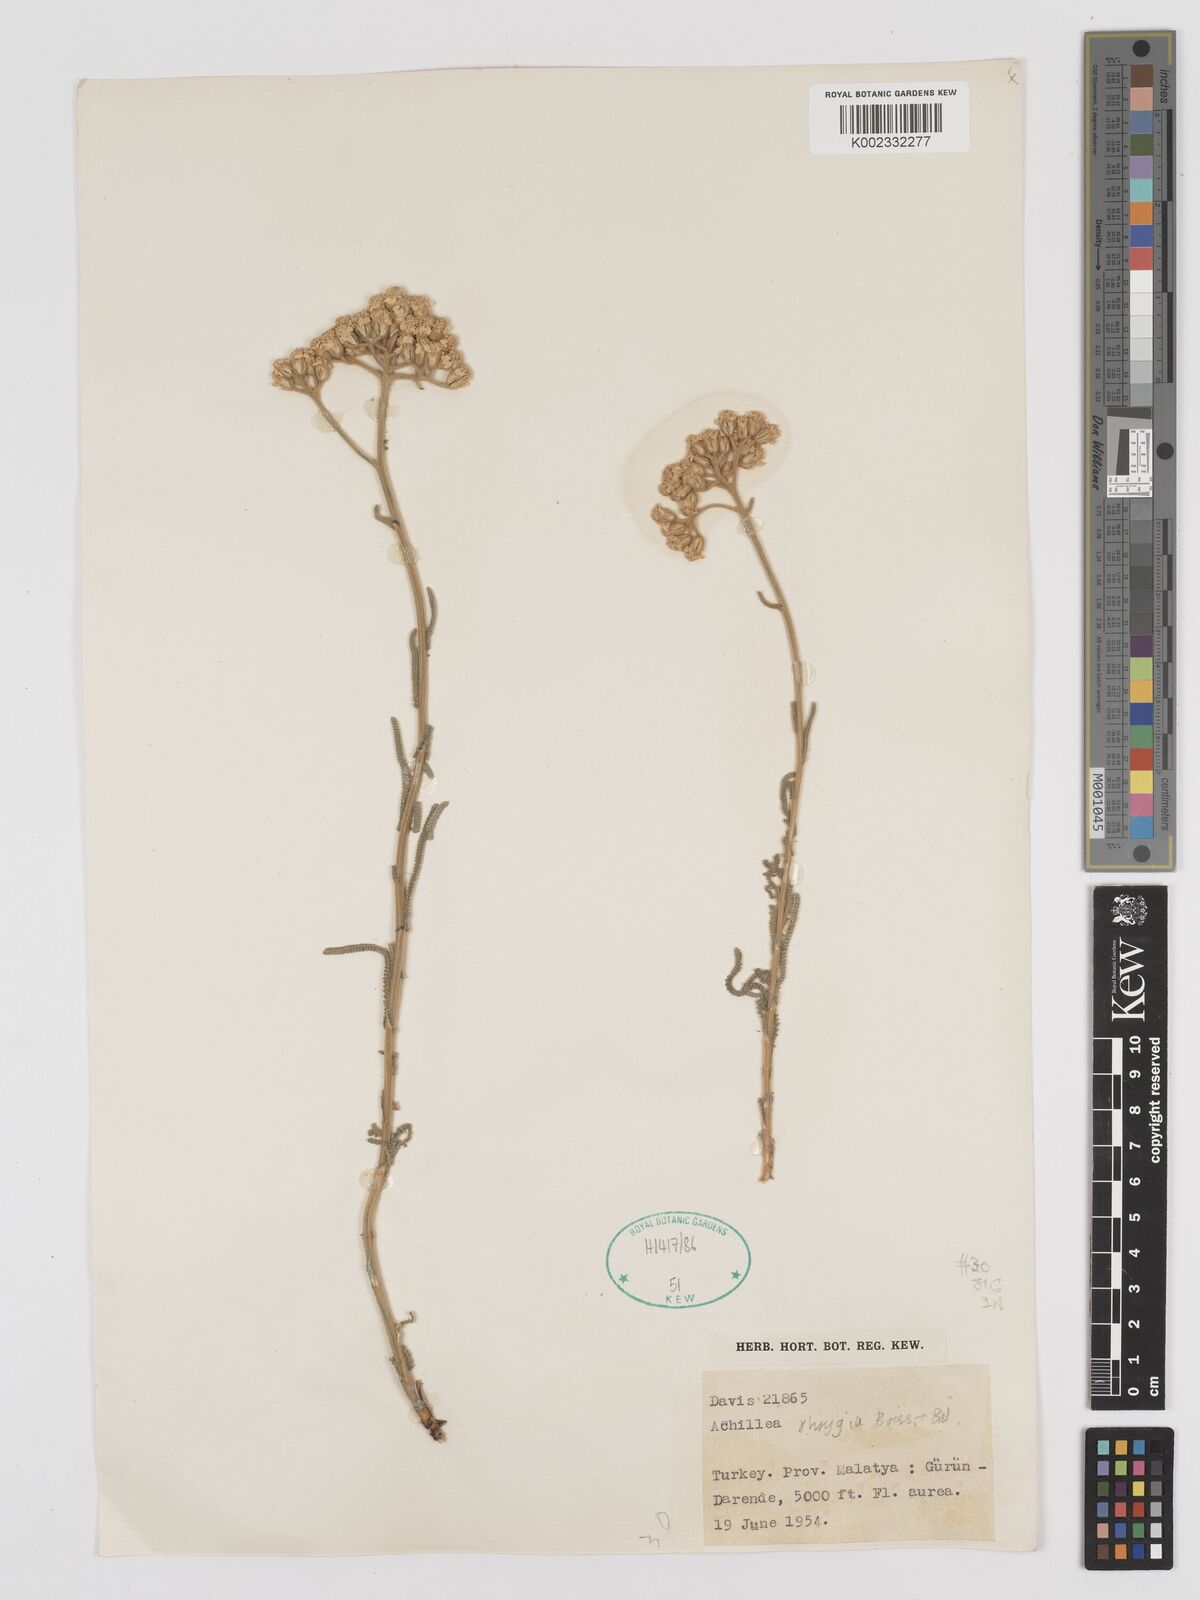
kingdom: Plantae
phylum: Tracheophyta
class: Magnoliopsida
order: Asterales
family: Asteraceae
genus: Achillea
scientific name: Achillea phrygia
